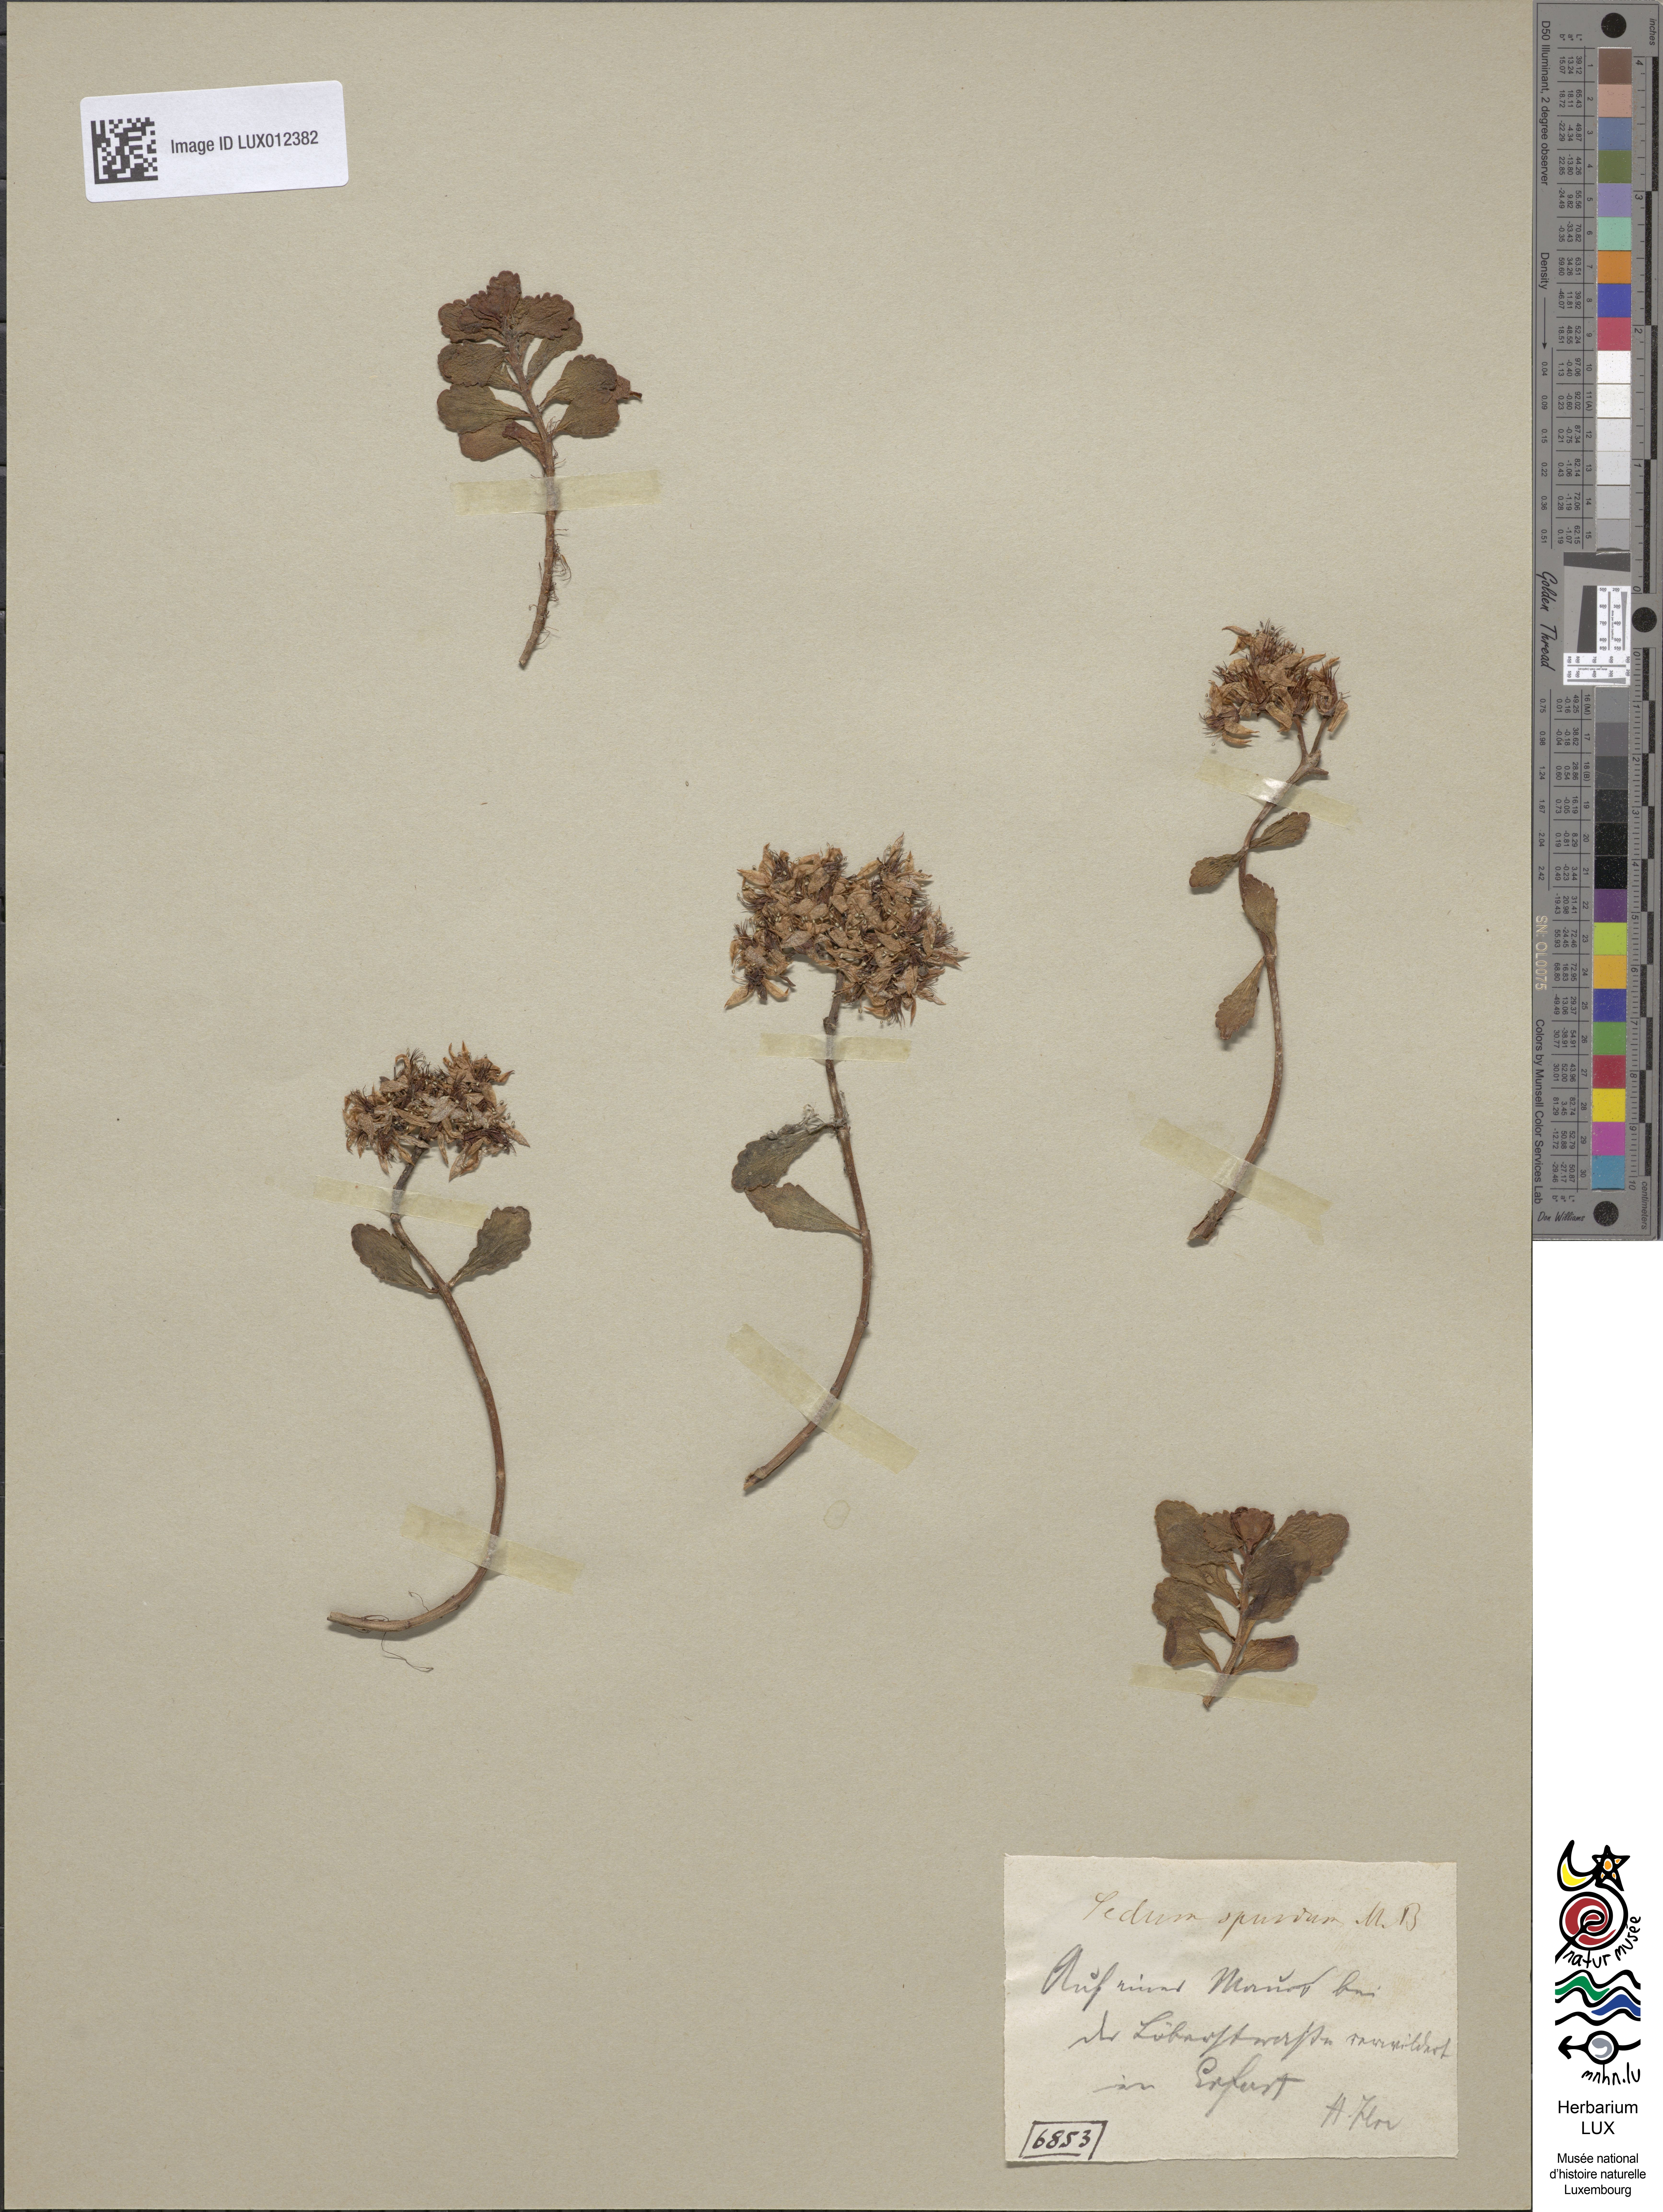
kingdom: Plantae
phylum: Tracheophyta
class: Magnoliopsida
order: Saxifragales
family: Crassulaceae
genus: Phedimus
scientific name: Phedimus spurius
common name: Caucasian stonecrop
